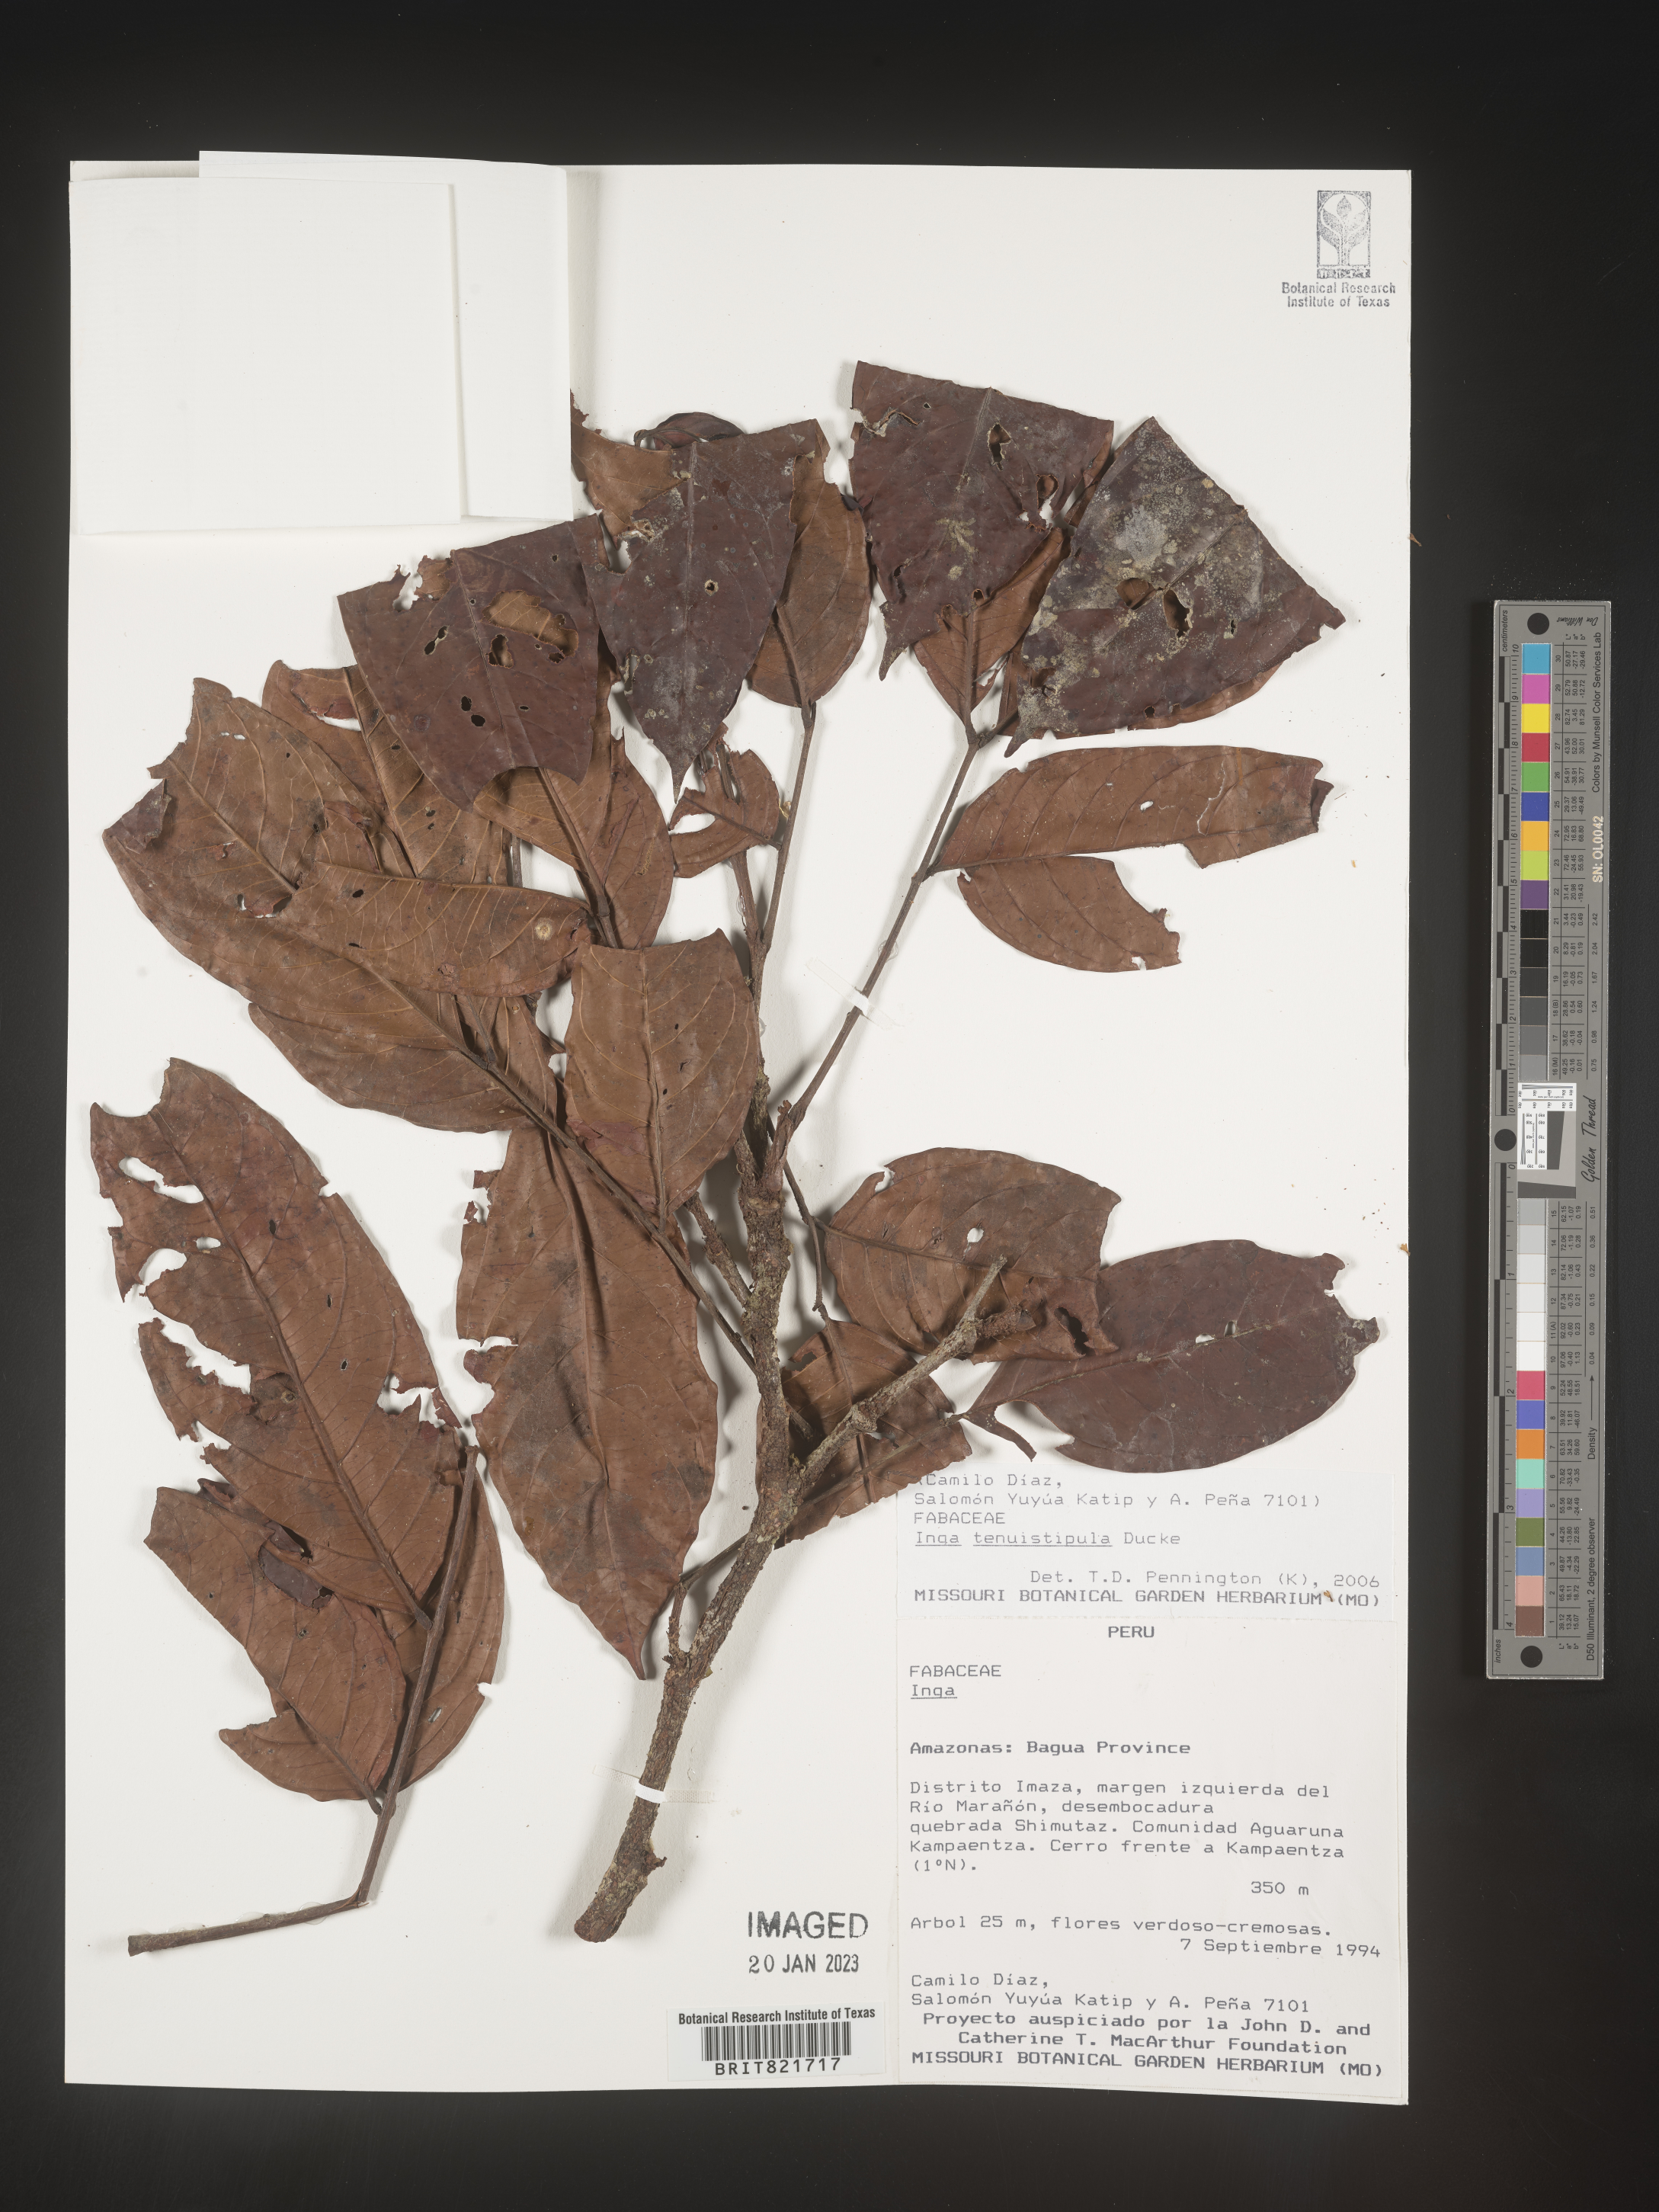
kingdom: Plantae
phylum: Tracheophyta
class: Magnoliopsida
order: Fabales
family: Fabaceae
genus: Inga
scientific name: Inga
